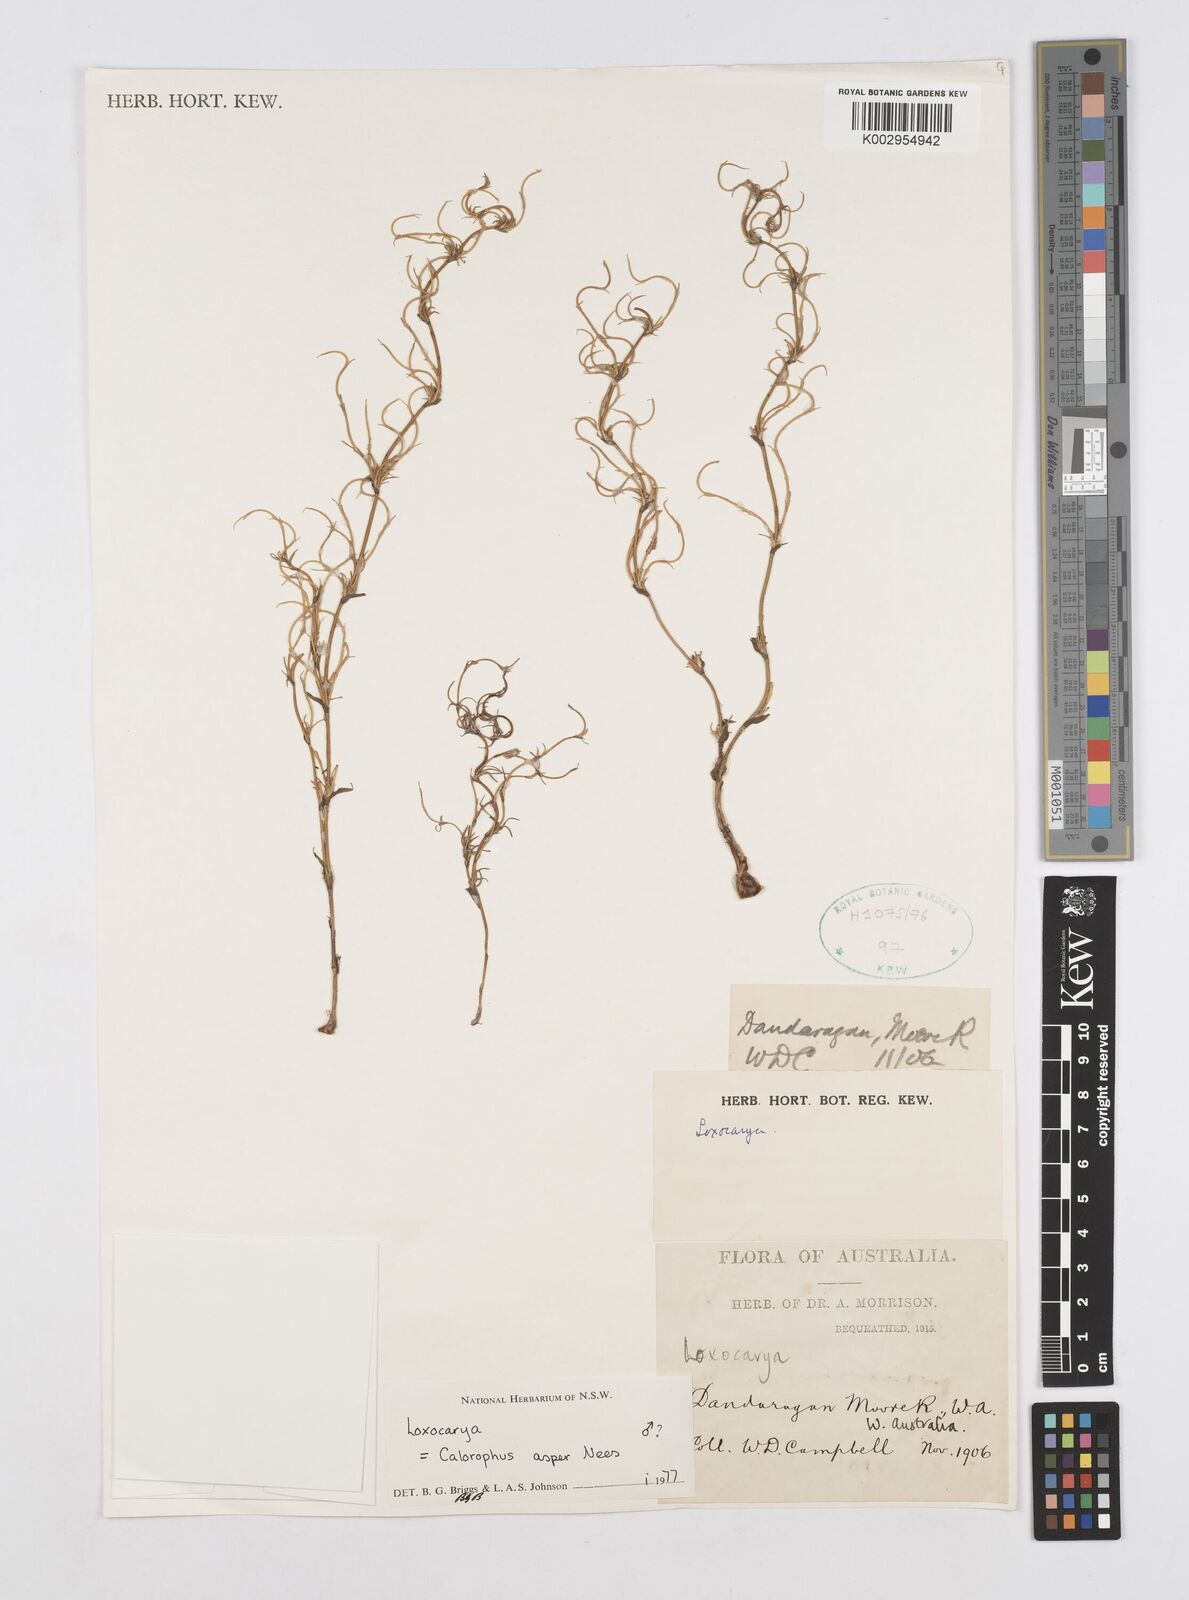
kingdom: Plantae
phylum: Tracheophyta
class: Liliopsida
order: Poales
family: Restionaceae
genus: Desmocladus
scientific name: Desmocladus asper
